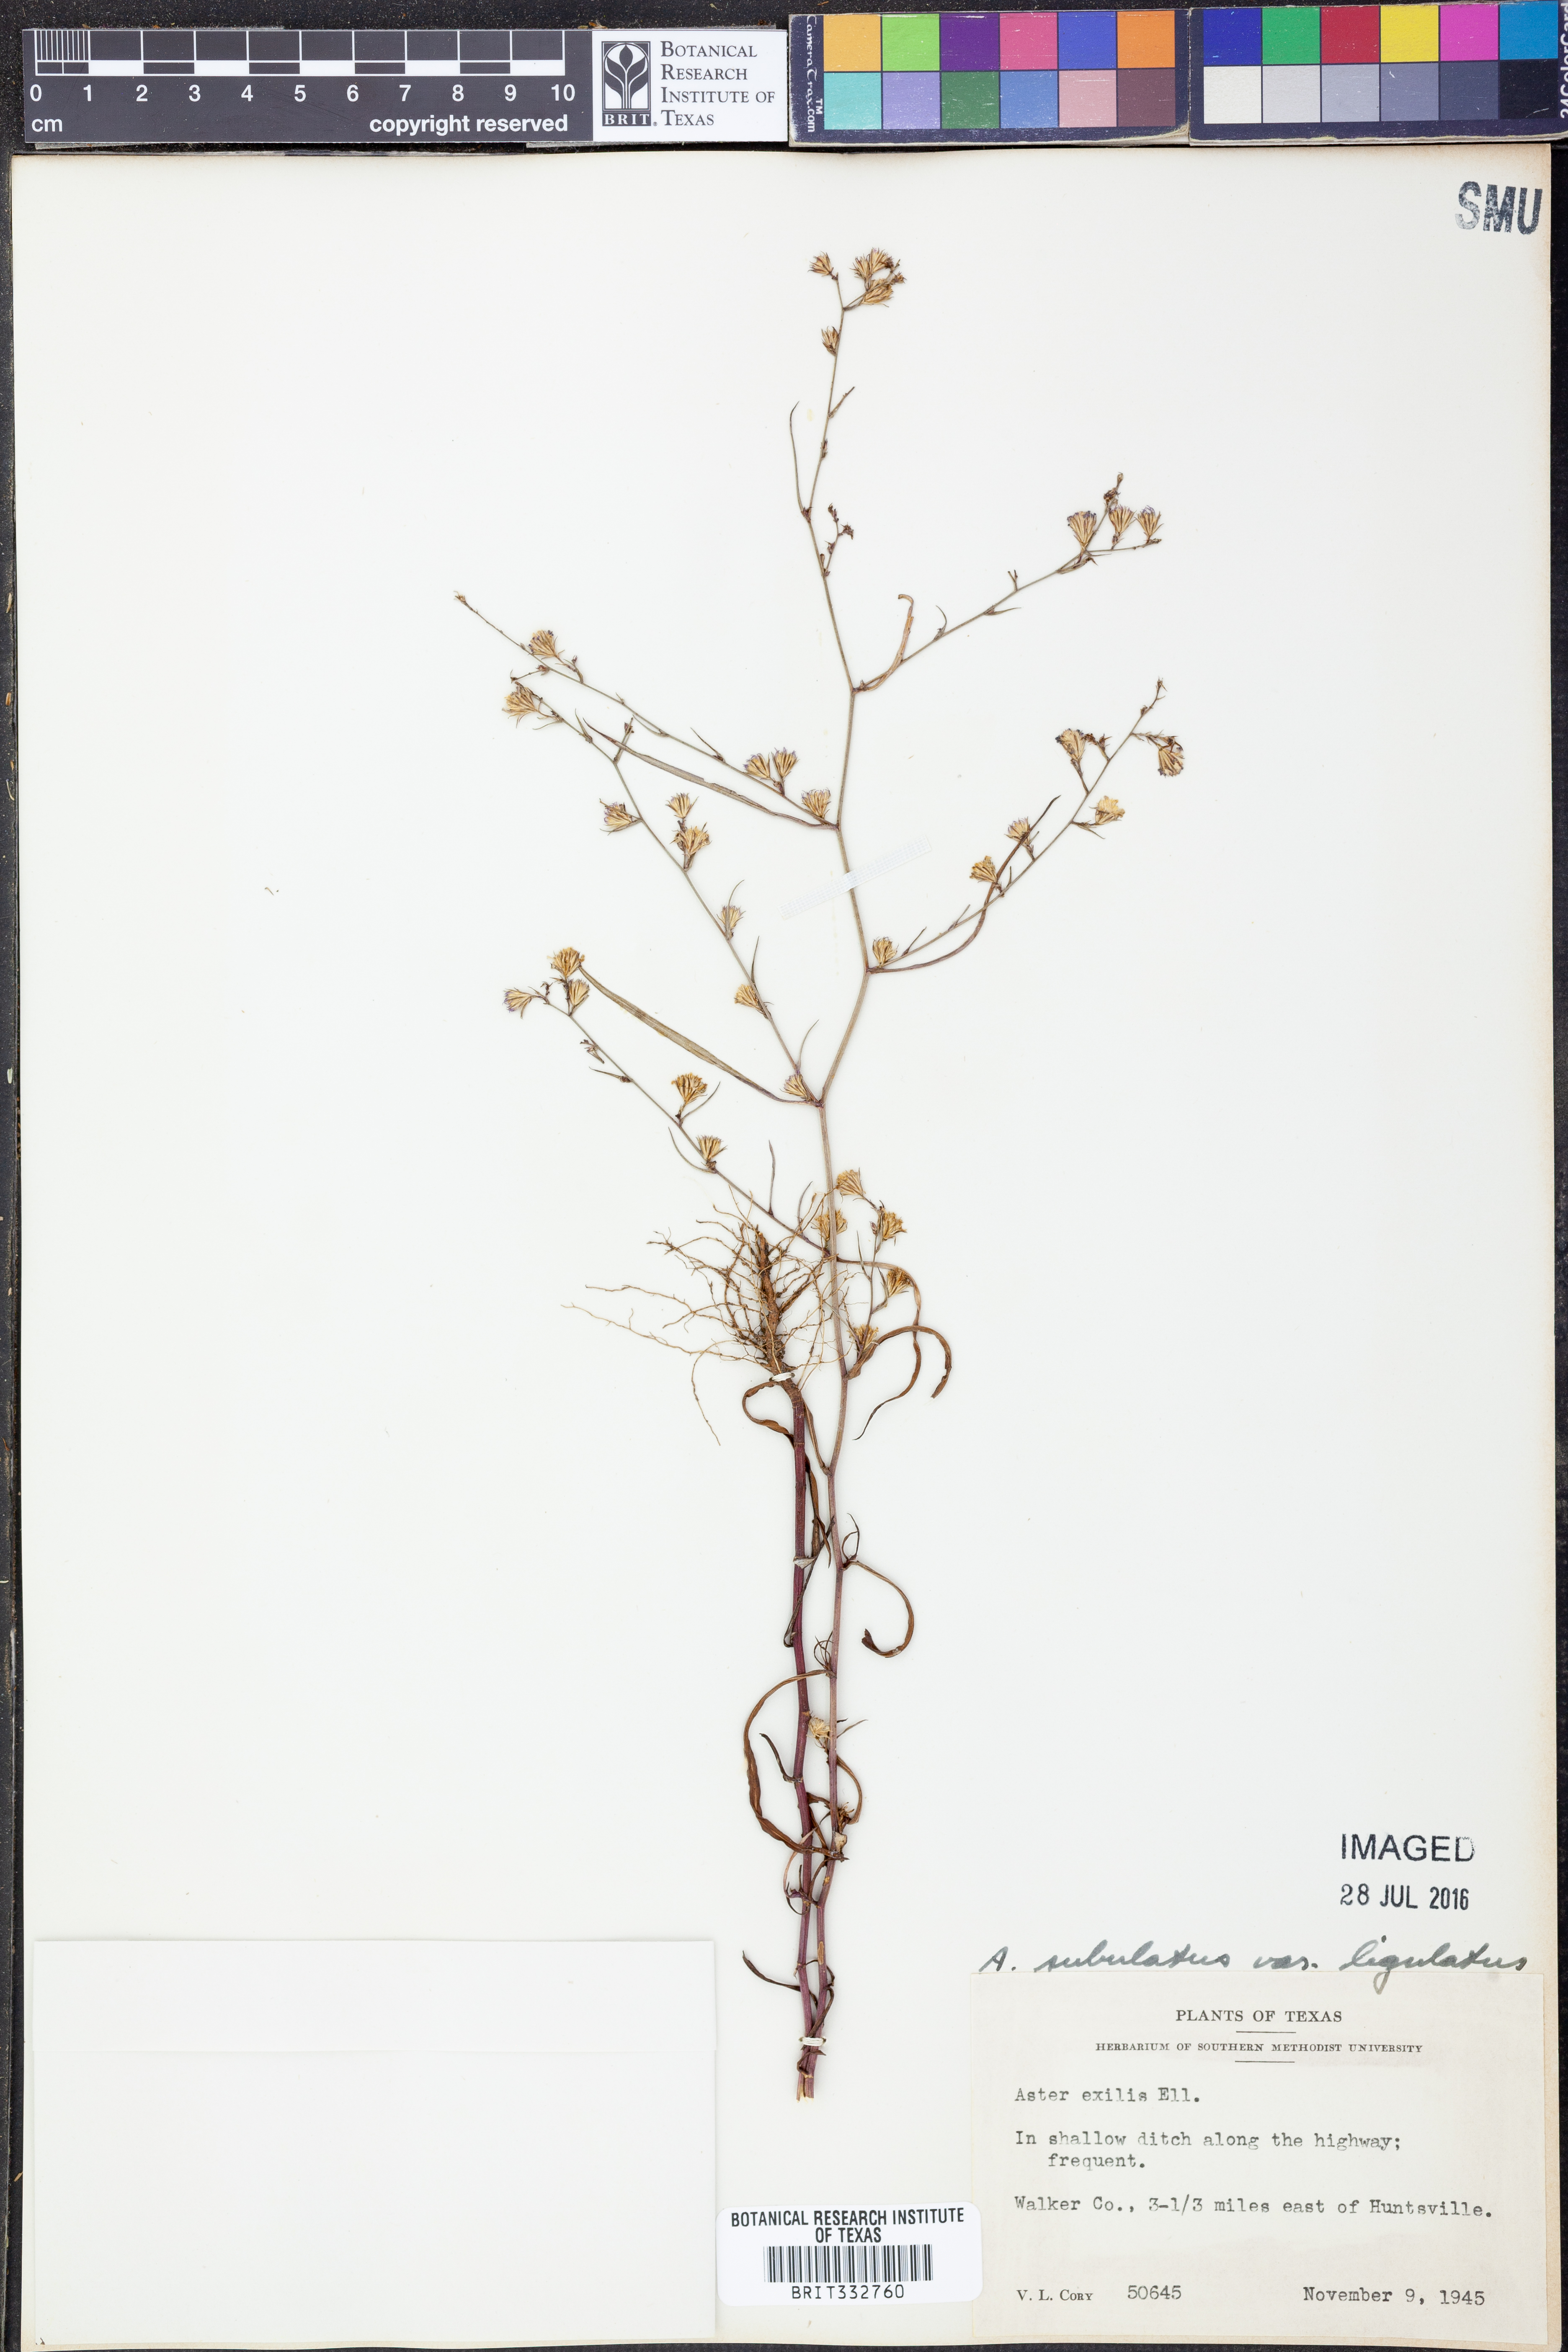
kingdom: Plantae
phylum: Tracheophyta
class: Magnoliopsida
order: Asterales
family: Asteraceae
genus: Symphyotrichum
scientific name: Symphyotrichum divaricatum
